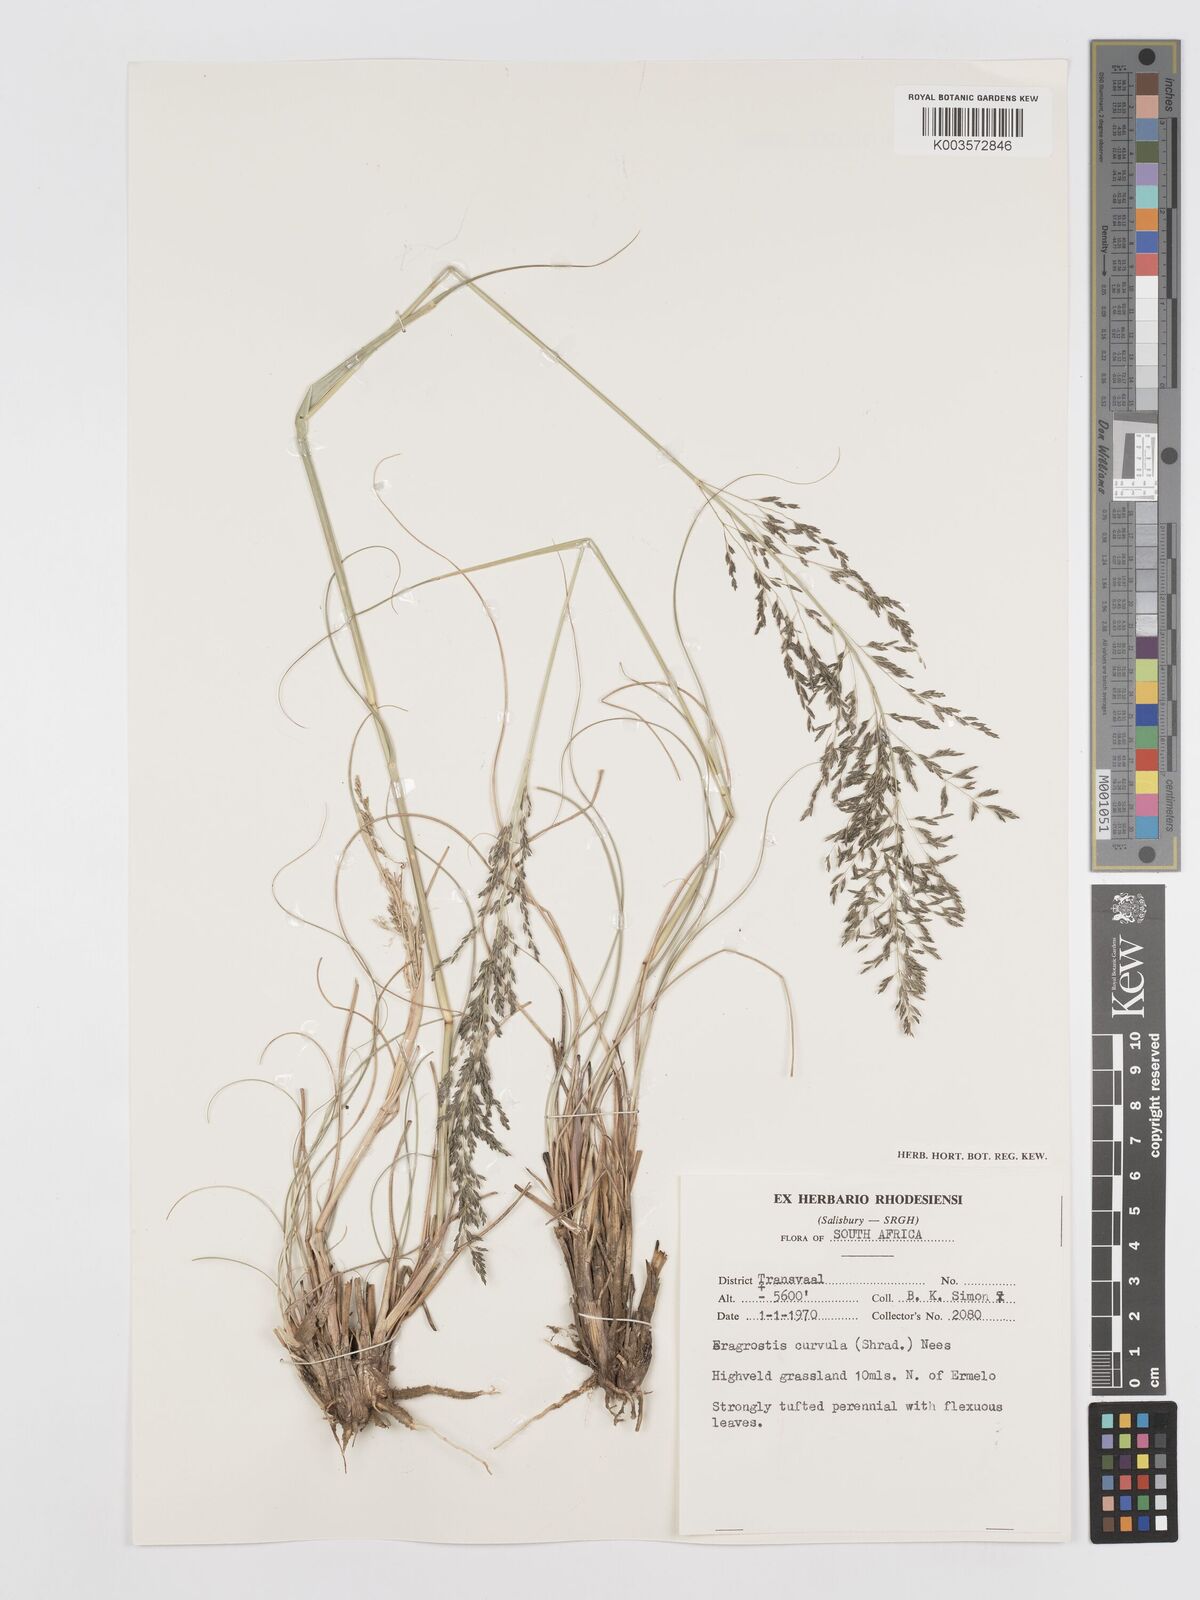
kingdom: Plantae
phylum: Tracheophyta
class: Liliopsida
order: Poales
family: Poaceae
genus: Eragrostis
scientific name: Eragrostis curvula
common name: African love-grass
